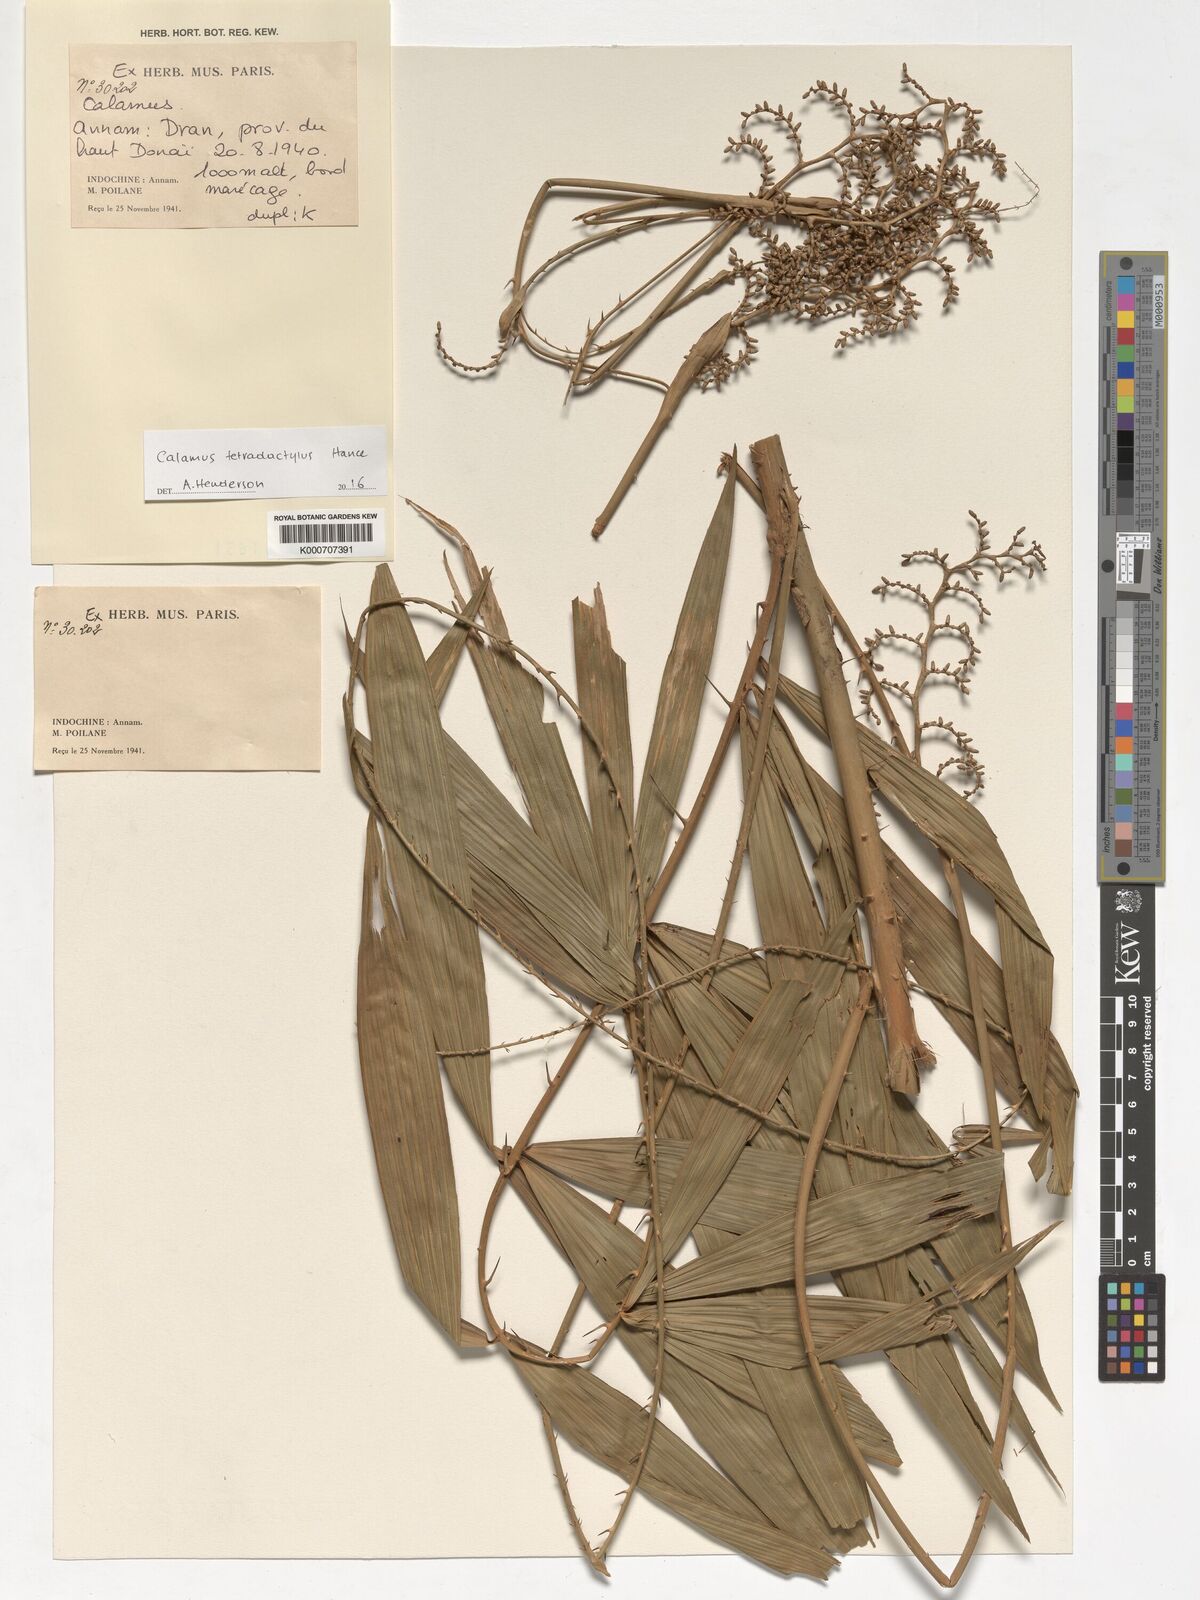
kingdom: Plantae
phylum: Tracheophyta
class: Liliopsida
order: Arecales
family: Arecaceae
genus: Calamus
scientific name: Calamus tetradactylus
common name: White rattan
